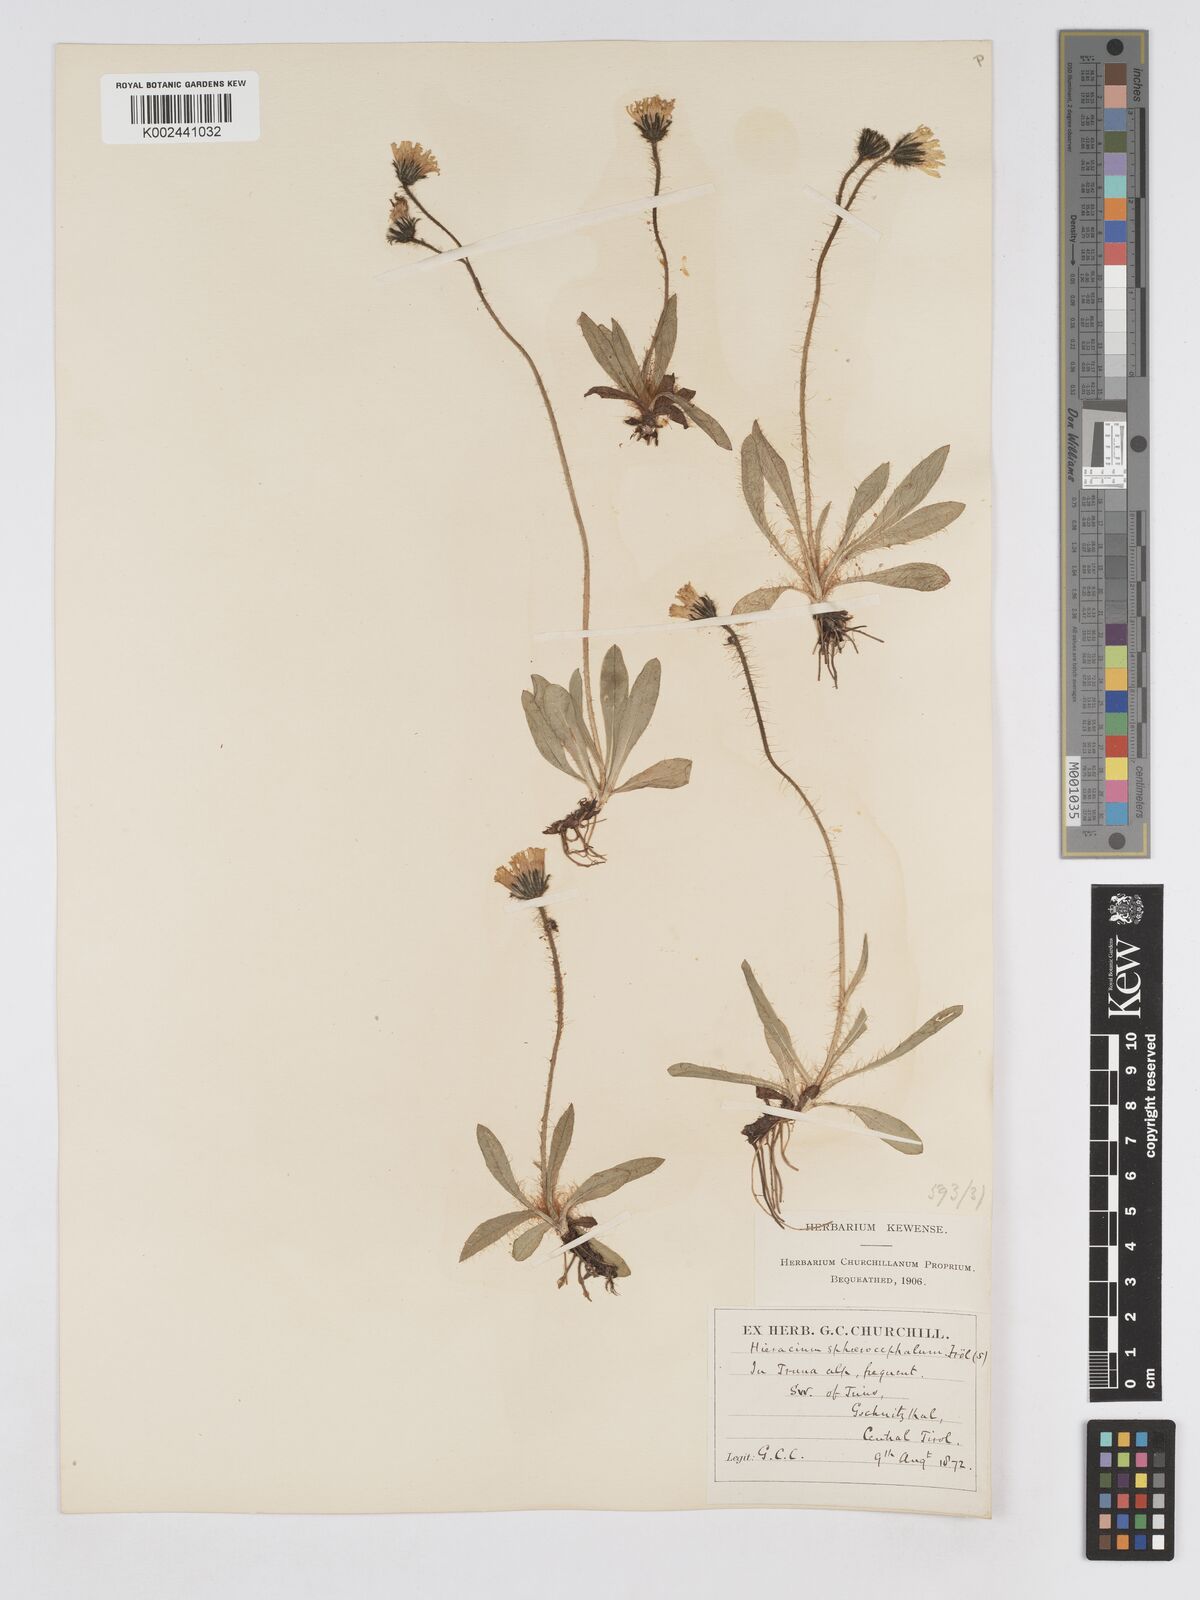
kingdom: Plantae
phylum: Tracheophyta
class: Magnoliopsida
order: Asterales
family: Asteraceae
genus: Pilosella
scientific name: Pilosella sphaerocephala
